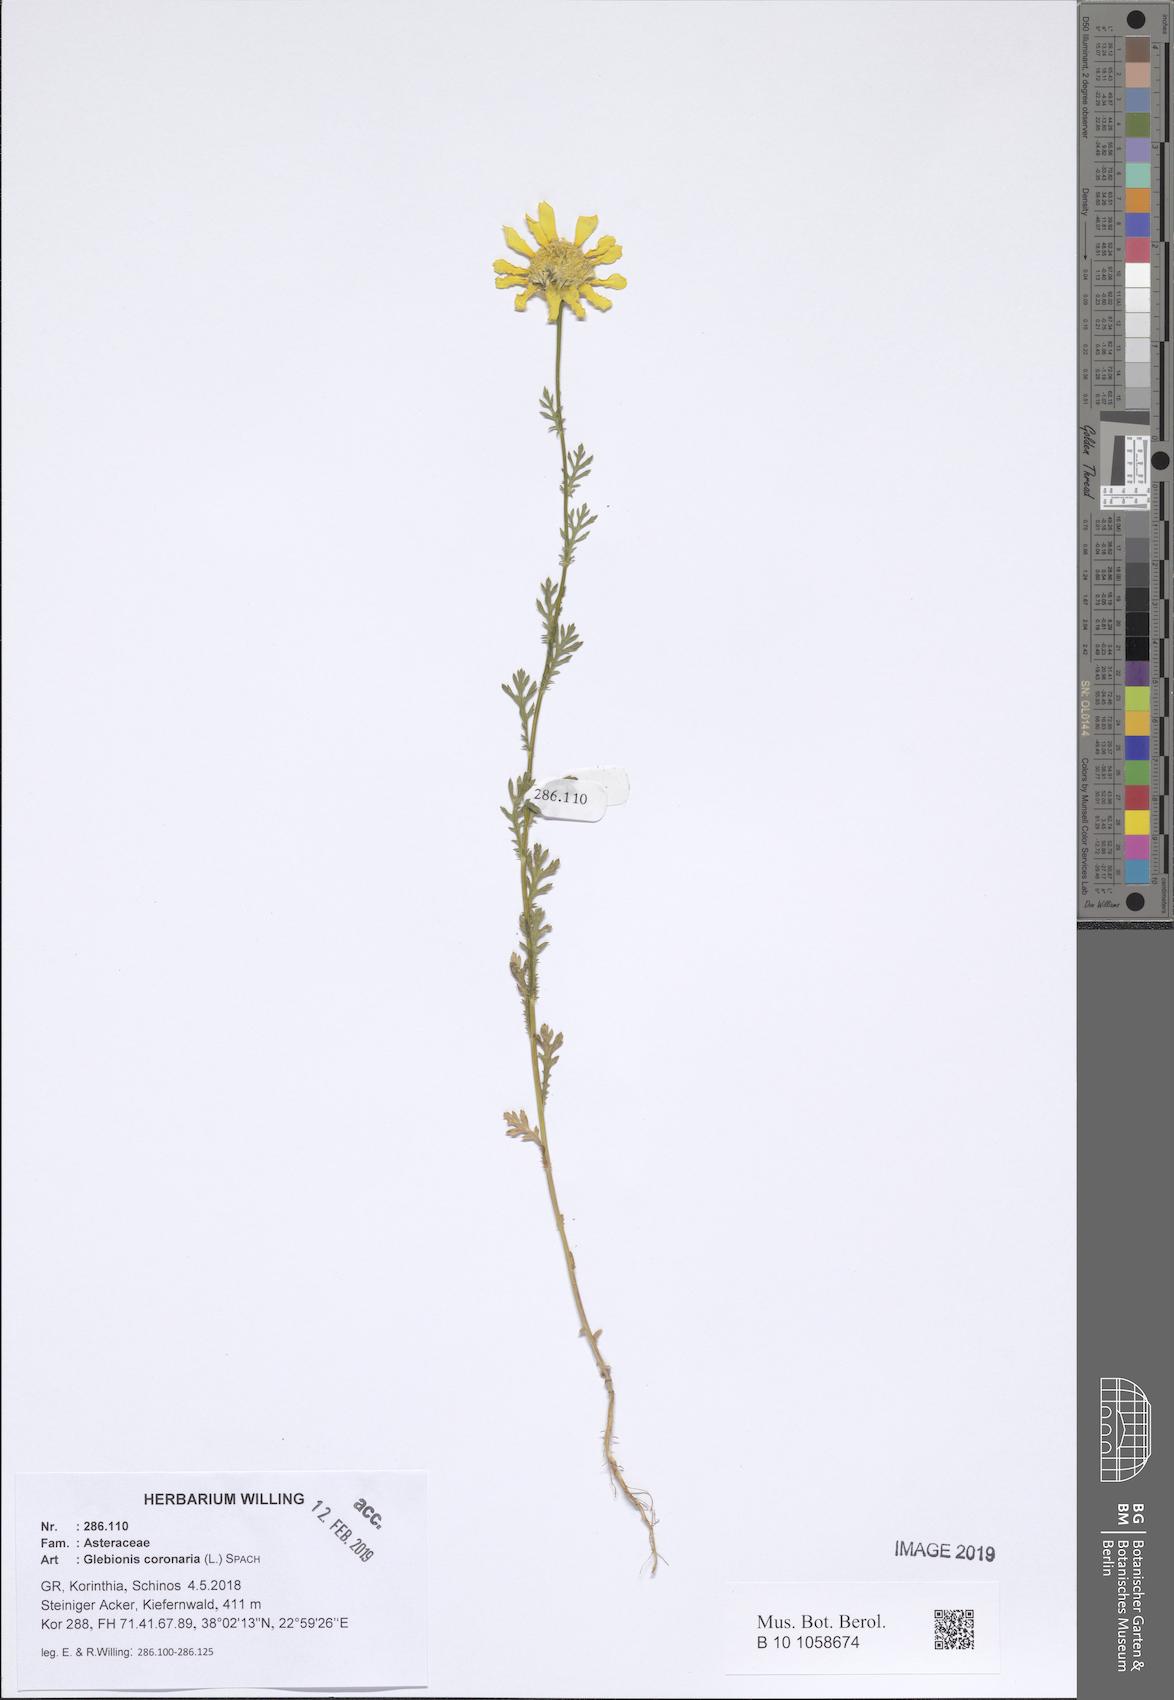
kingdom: Plantae
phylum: Tracheophyta
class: Magnoliopsida
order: Asterales
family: Asteraceae
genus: Glebionis
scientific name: Glebionis coronaria
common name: Crowndaisy
